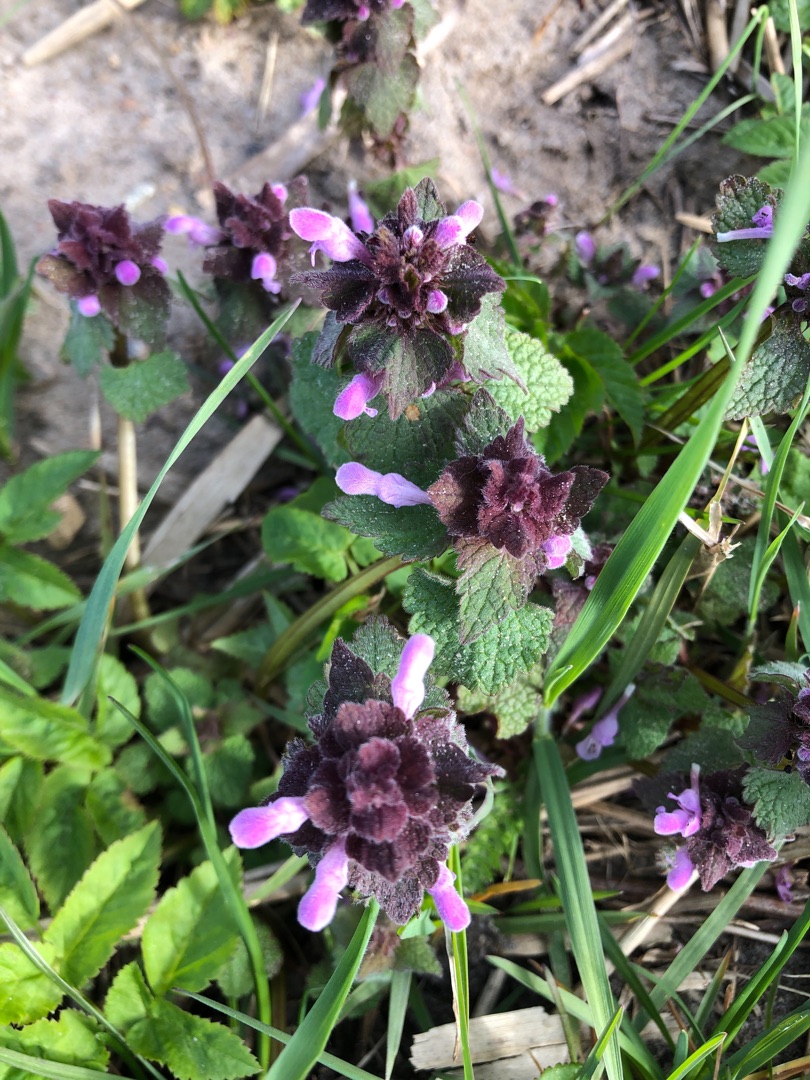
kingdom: Plantae
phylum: Tracheophyta
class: Magnoliopsida
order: Lamiales
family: Lamiaceae
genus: Lamium
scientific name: Lamium purpureum
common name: Rød tvetand
